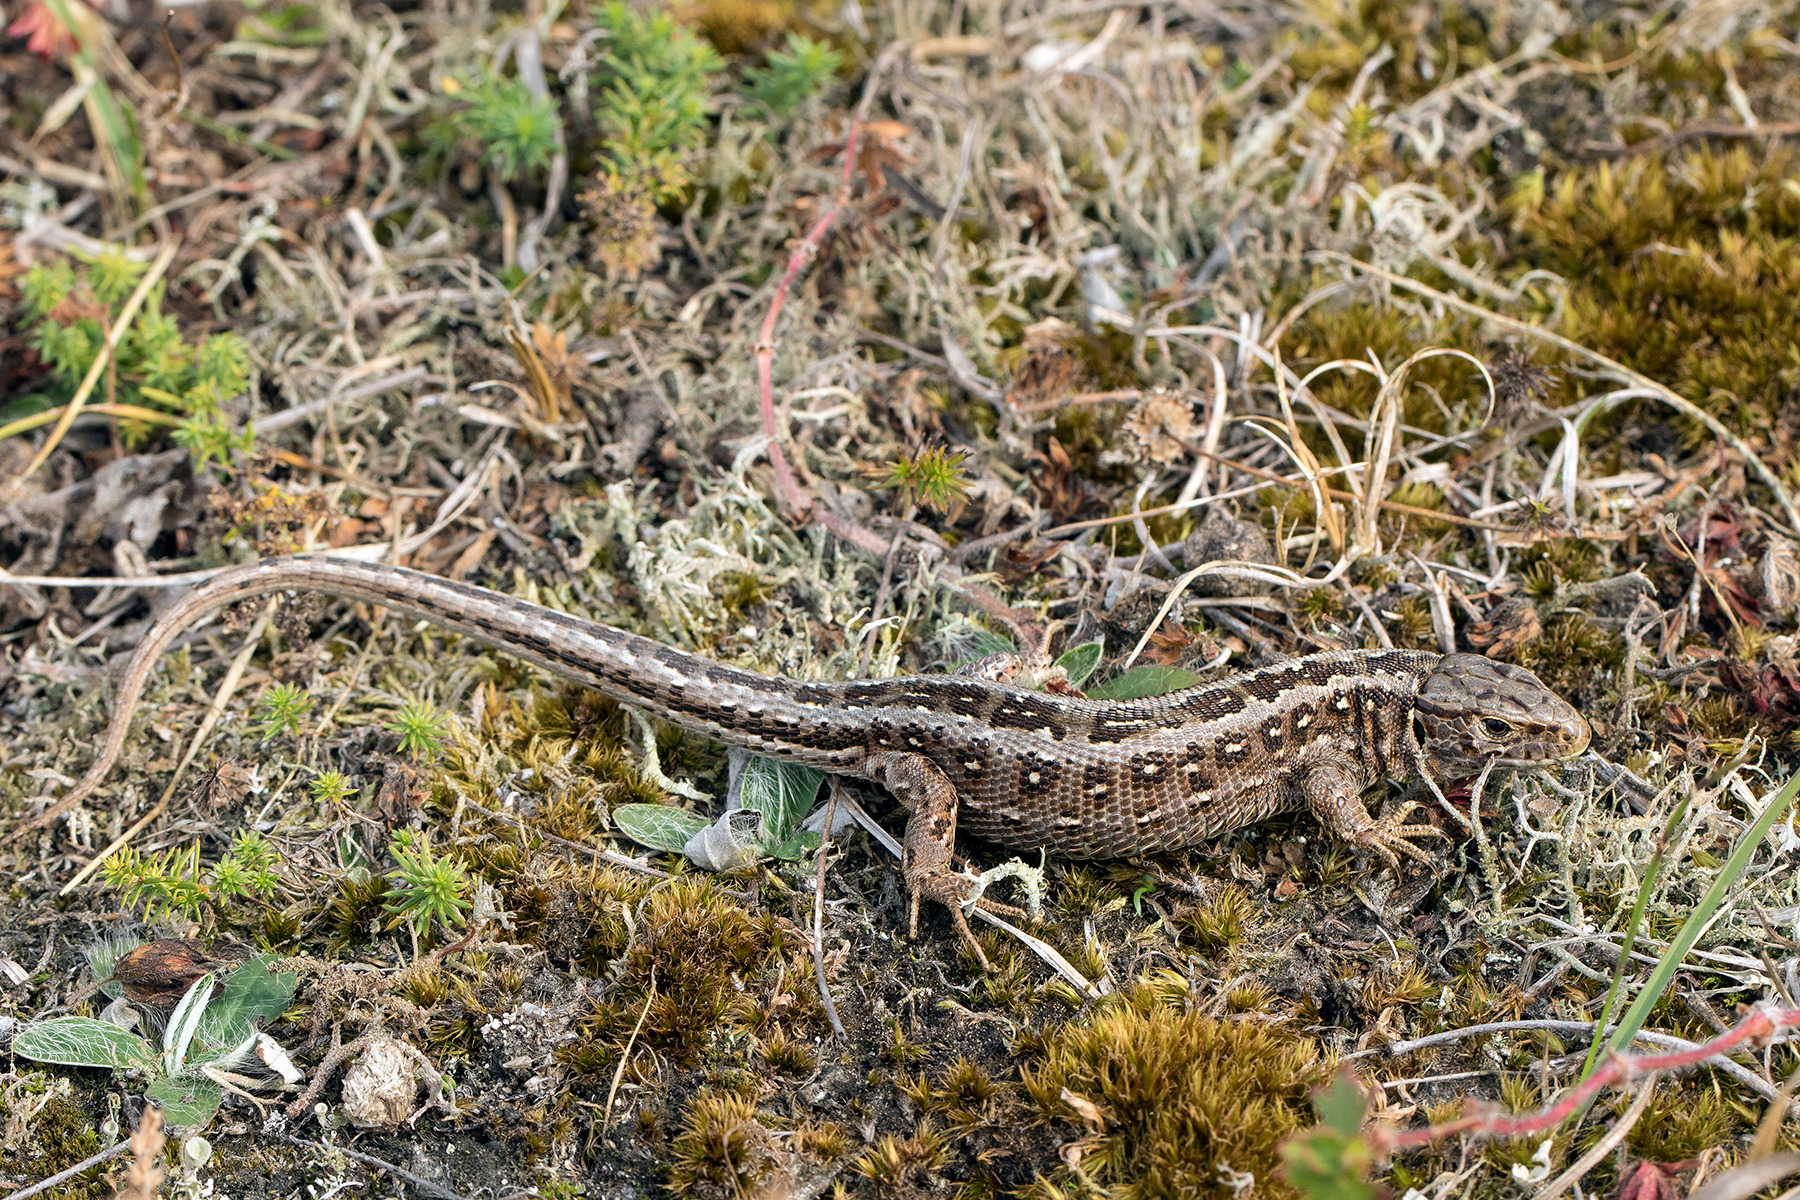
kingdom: Animalia
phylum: Chordata
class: Squamata
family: Lacertidae
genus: Lacerta
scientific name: Lacerta agilis
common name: Markfirben
